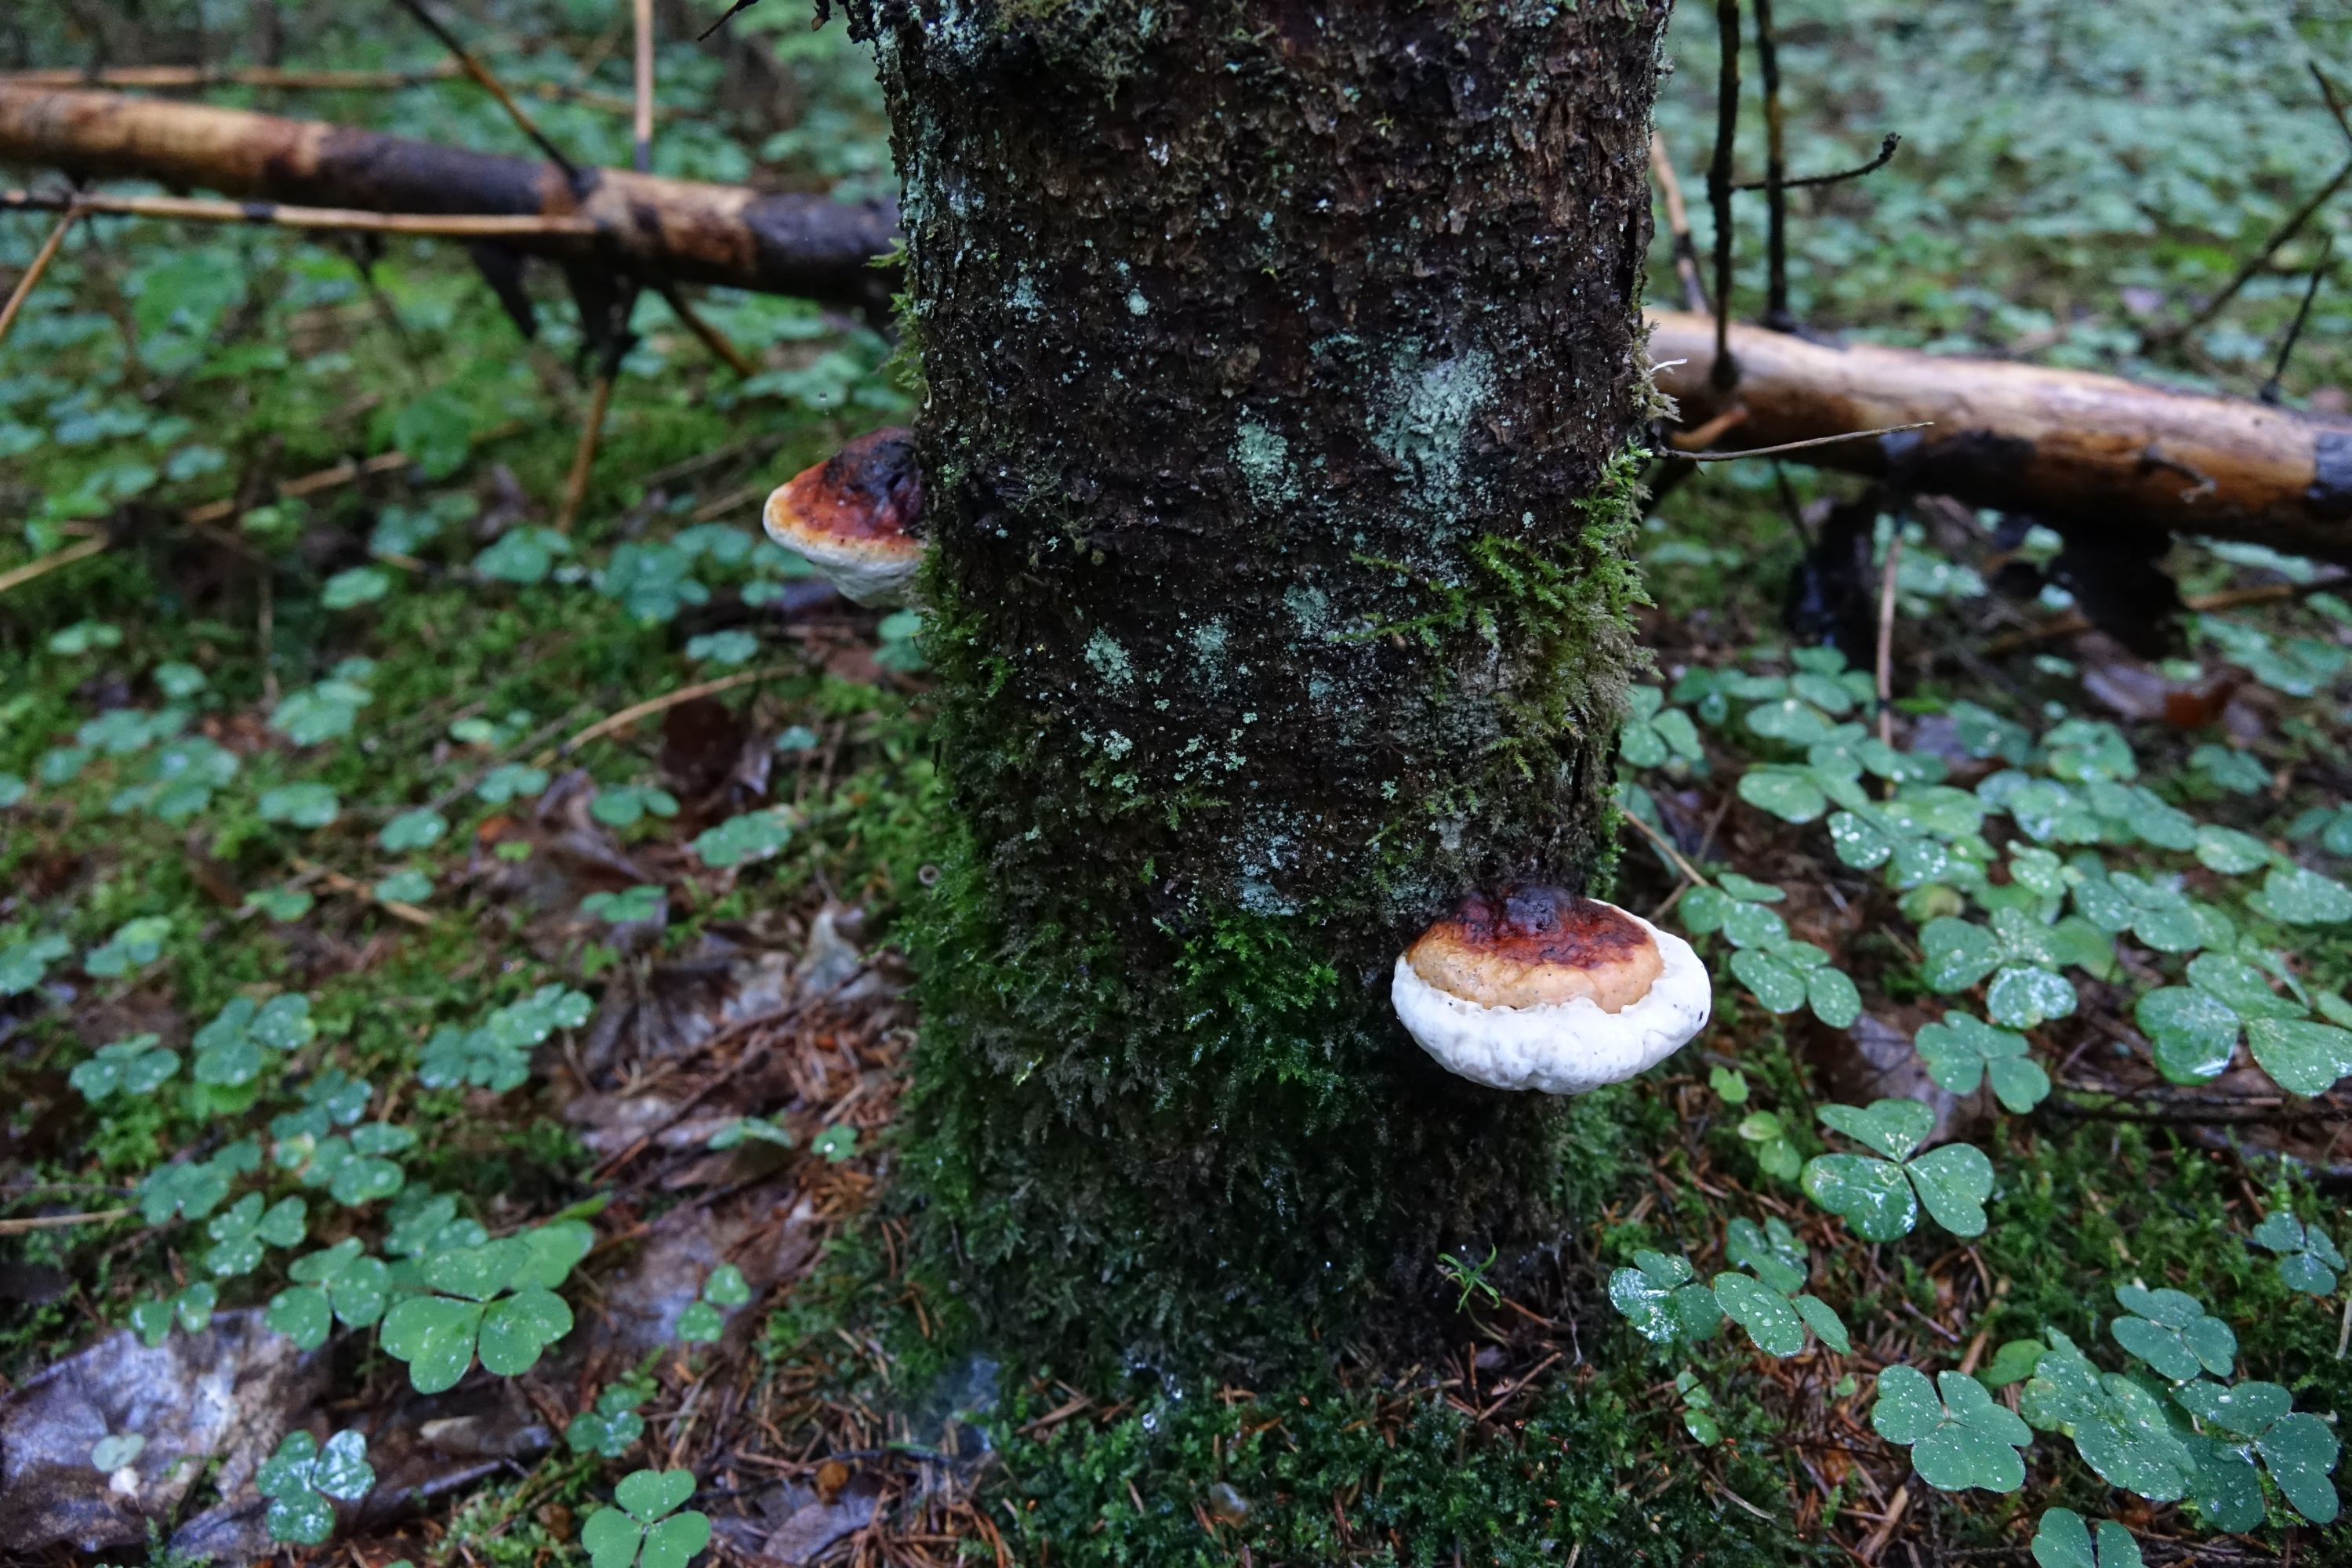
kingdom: Fungi
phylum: Basidiomycota
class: Agaricomycetes
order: Polyporales
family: Fomitopsidaceae
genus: Fomitopsis
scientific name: Fomitopsis pinicola
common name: Red-belted bracket
